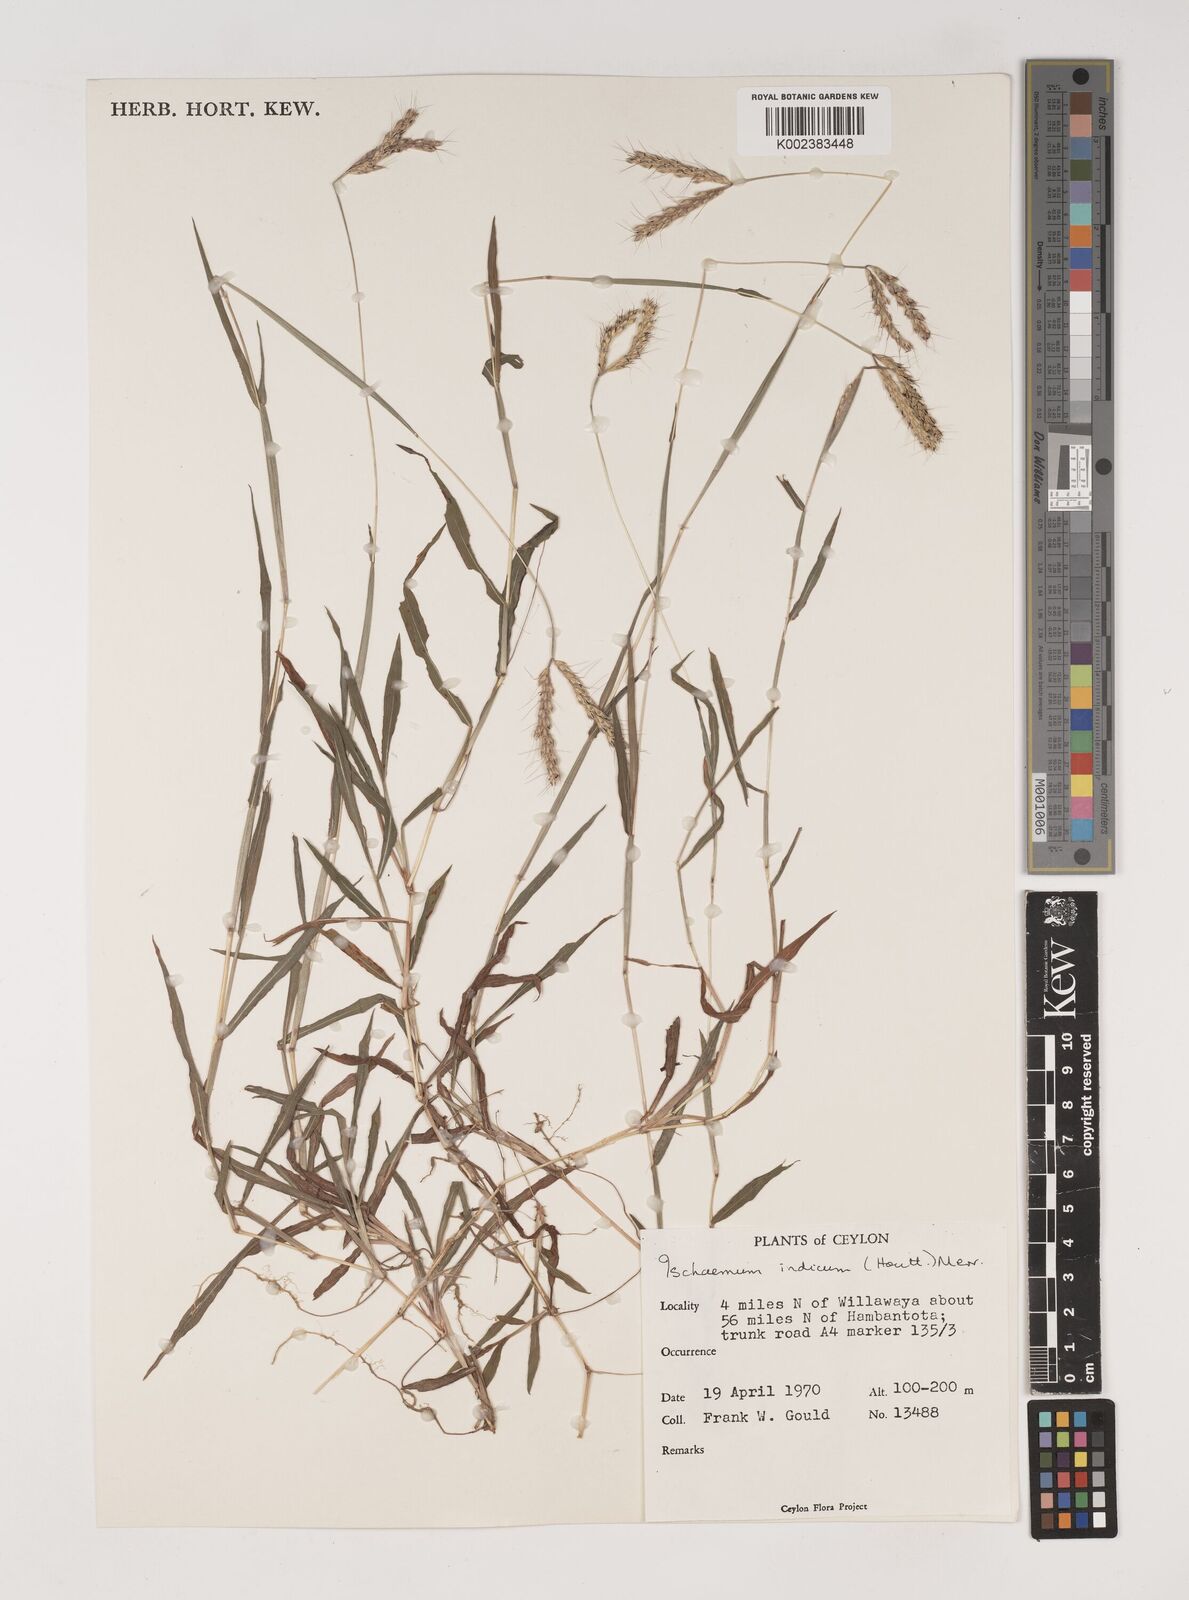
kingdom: Plantae
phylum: Tracheophyta
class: Liliopsida
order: Poales
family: Poaceae
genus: Polytrias
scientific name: Polytrias indica
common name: Indian murainagrass
